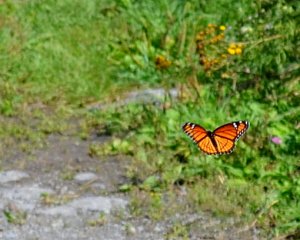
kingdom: Animalia
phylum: Arthropoda
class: Insecta
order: Lepidoptera
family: Nymphalidae
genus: Limenitis
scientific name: Limenitis archippus
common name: Viceroy
